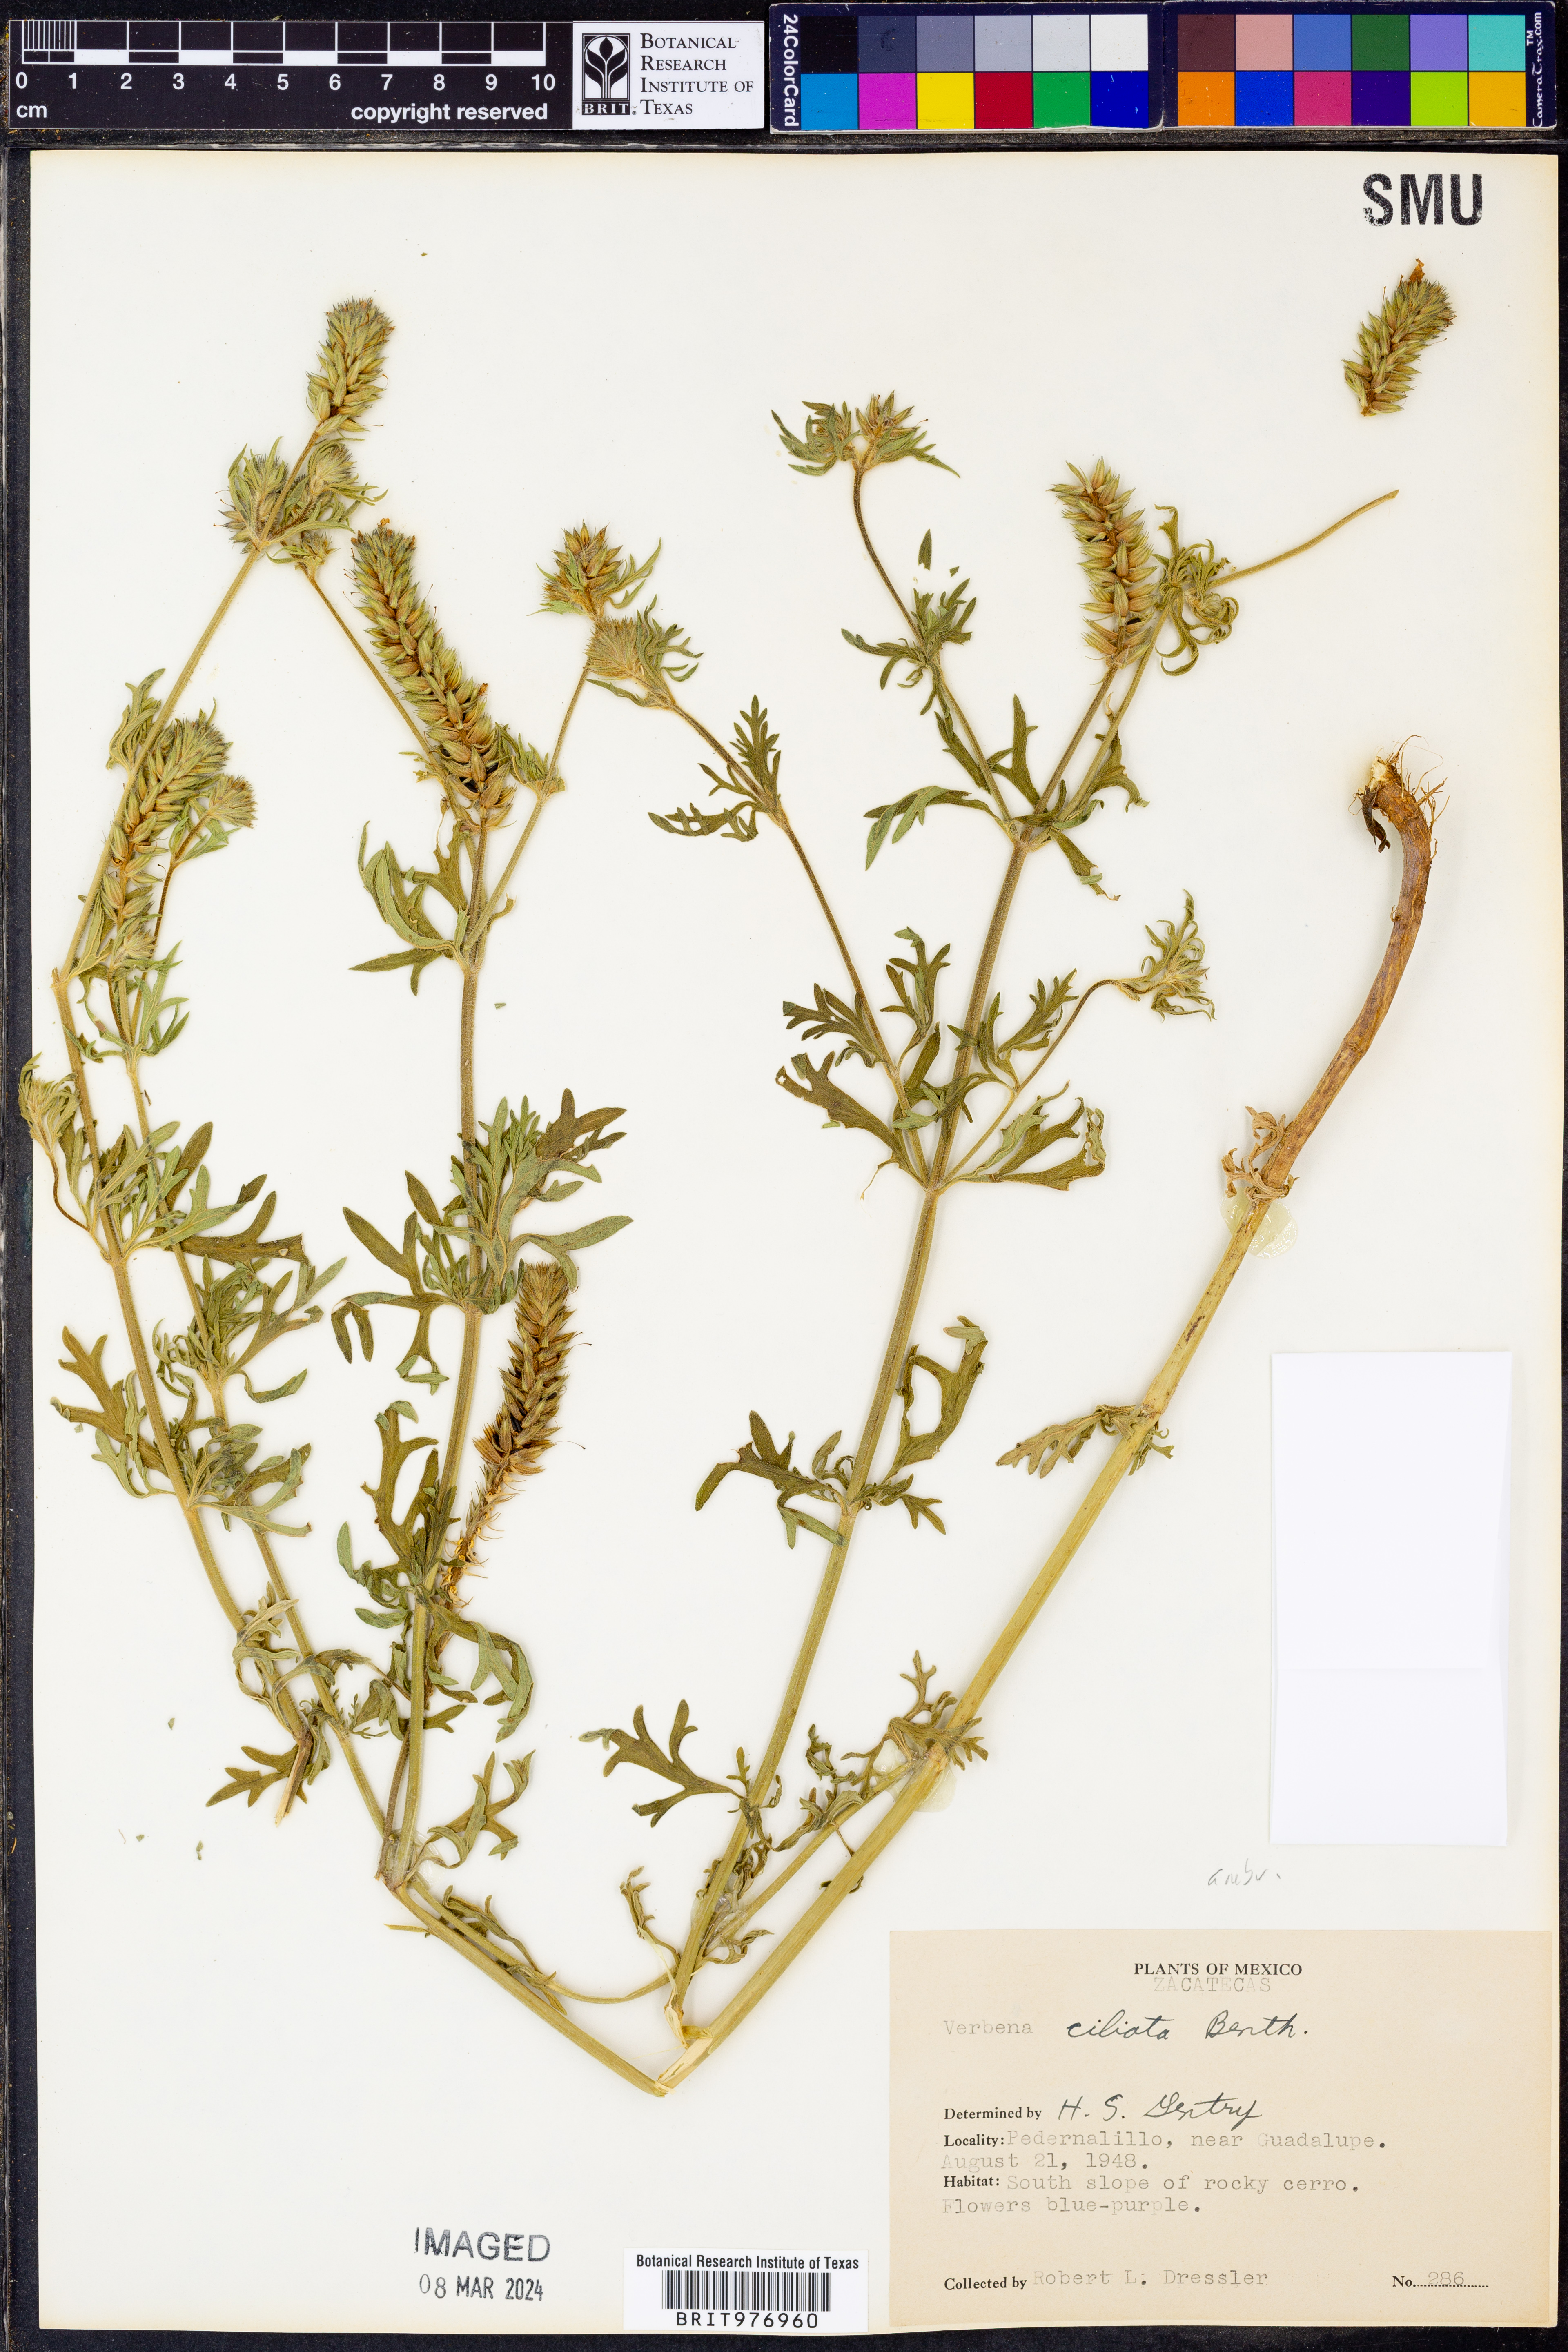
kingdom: Plantae
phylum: Tracheophyta
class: Magnoliopsida
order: Lamiales
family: Verbenaceae
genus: Verbena
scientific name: Verbena
